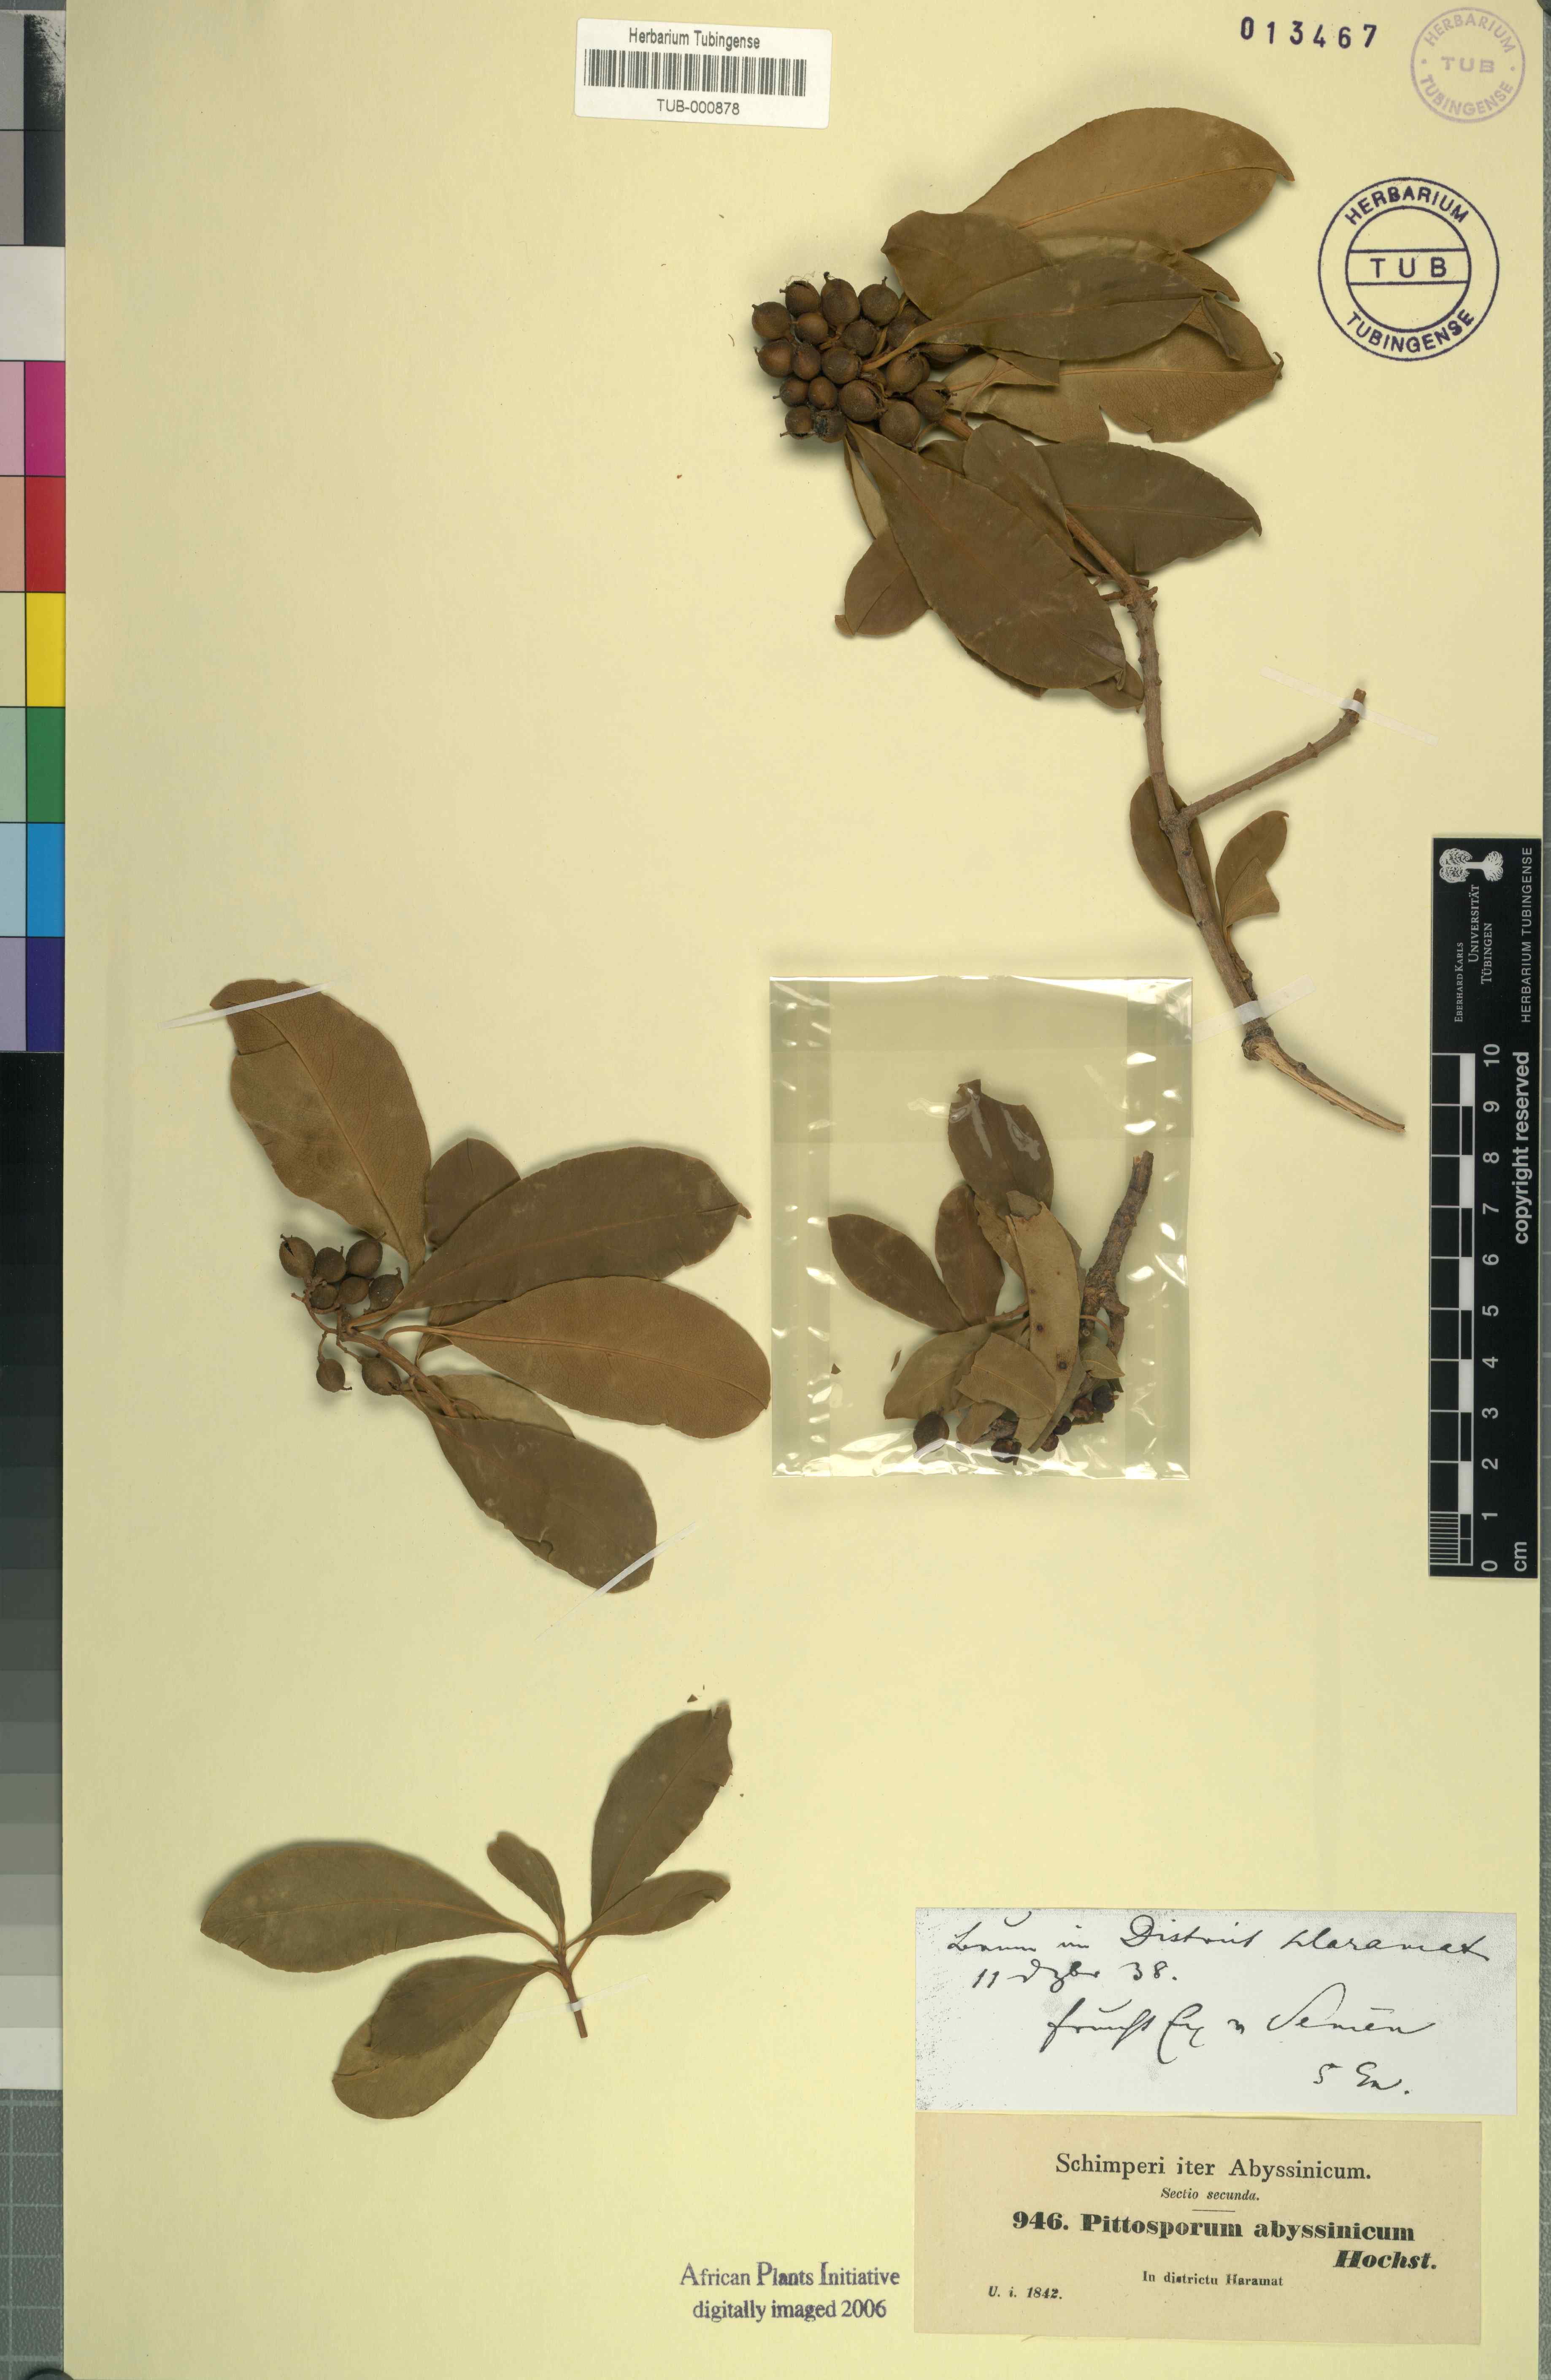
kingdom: Plantae
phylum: Tracheophyta
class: Magnoliopsida
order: Apiales
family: Pittosporaceae
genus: Pittosporum
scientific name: Pittosporum abyssinicum
